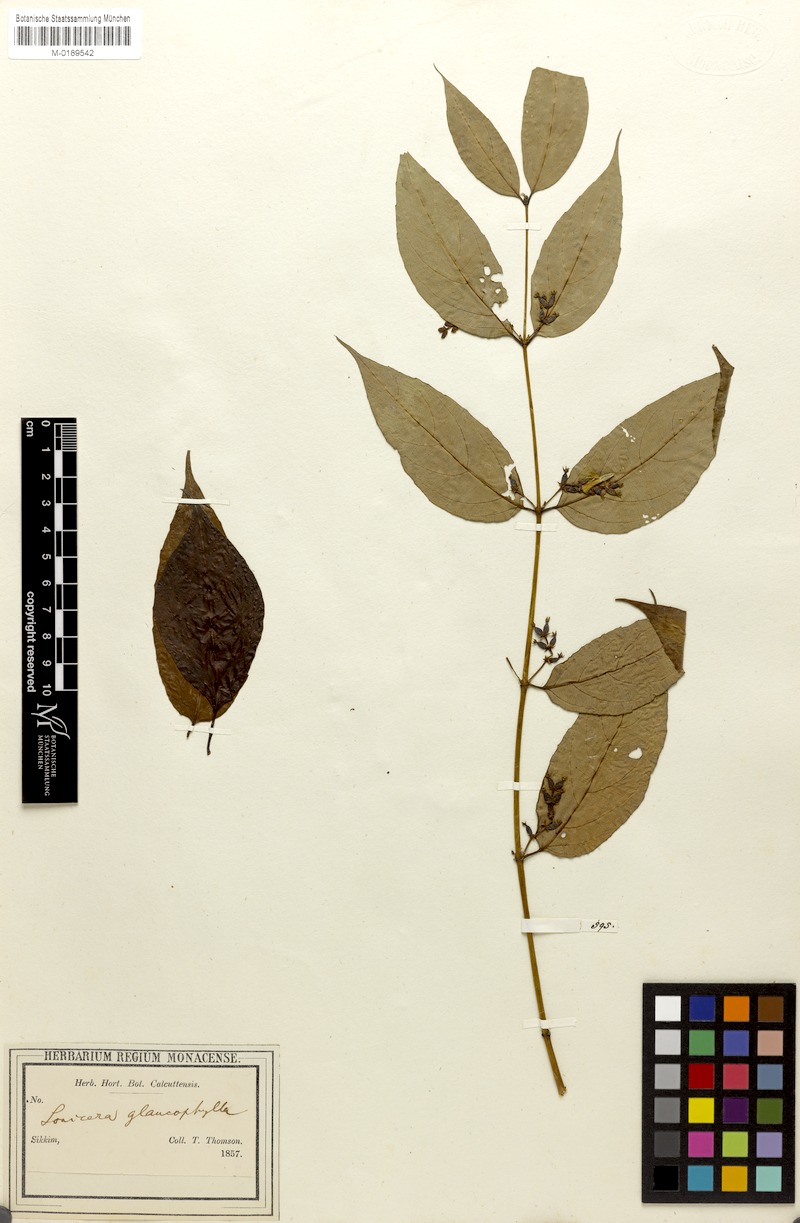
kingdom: Plantae
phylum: Tracheophyta
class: Magnoliopsida
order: Dipsacales
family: Caprifoliaceae
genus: Leycesteria
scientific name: Leycesteria glaucophylla
